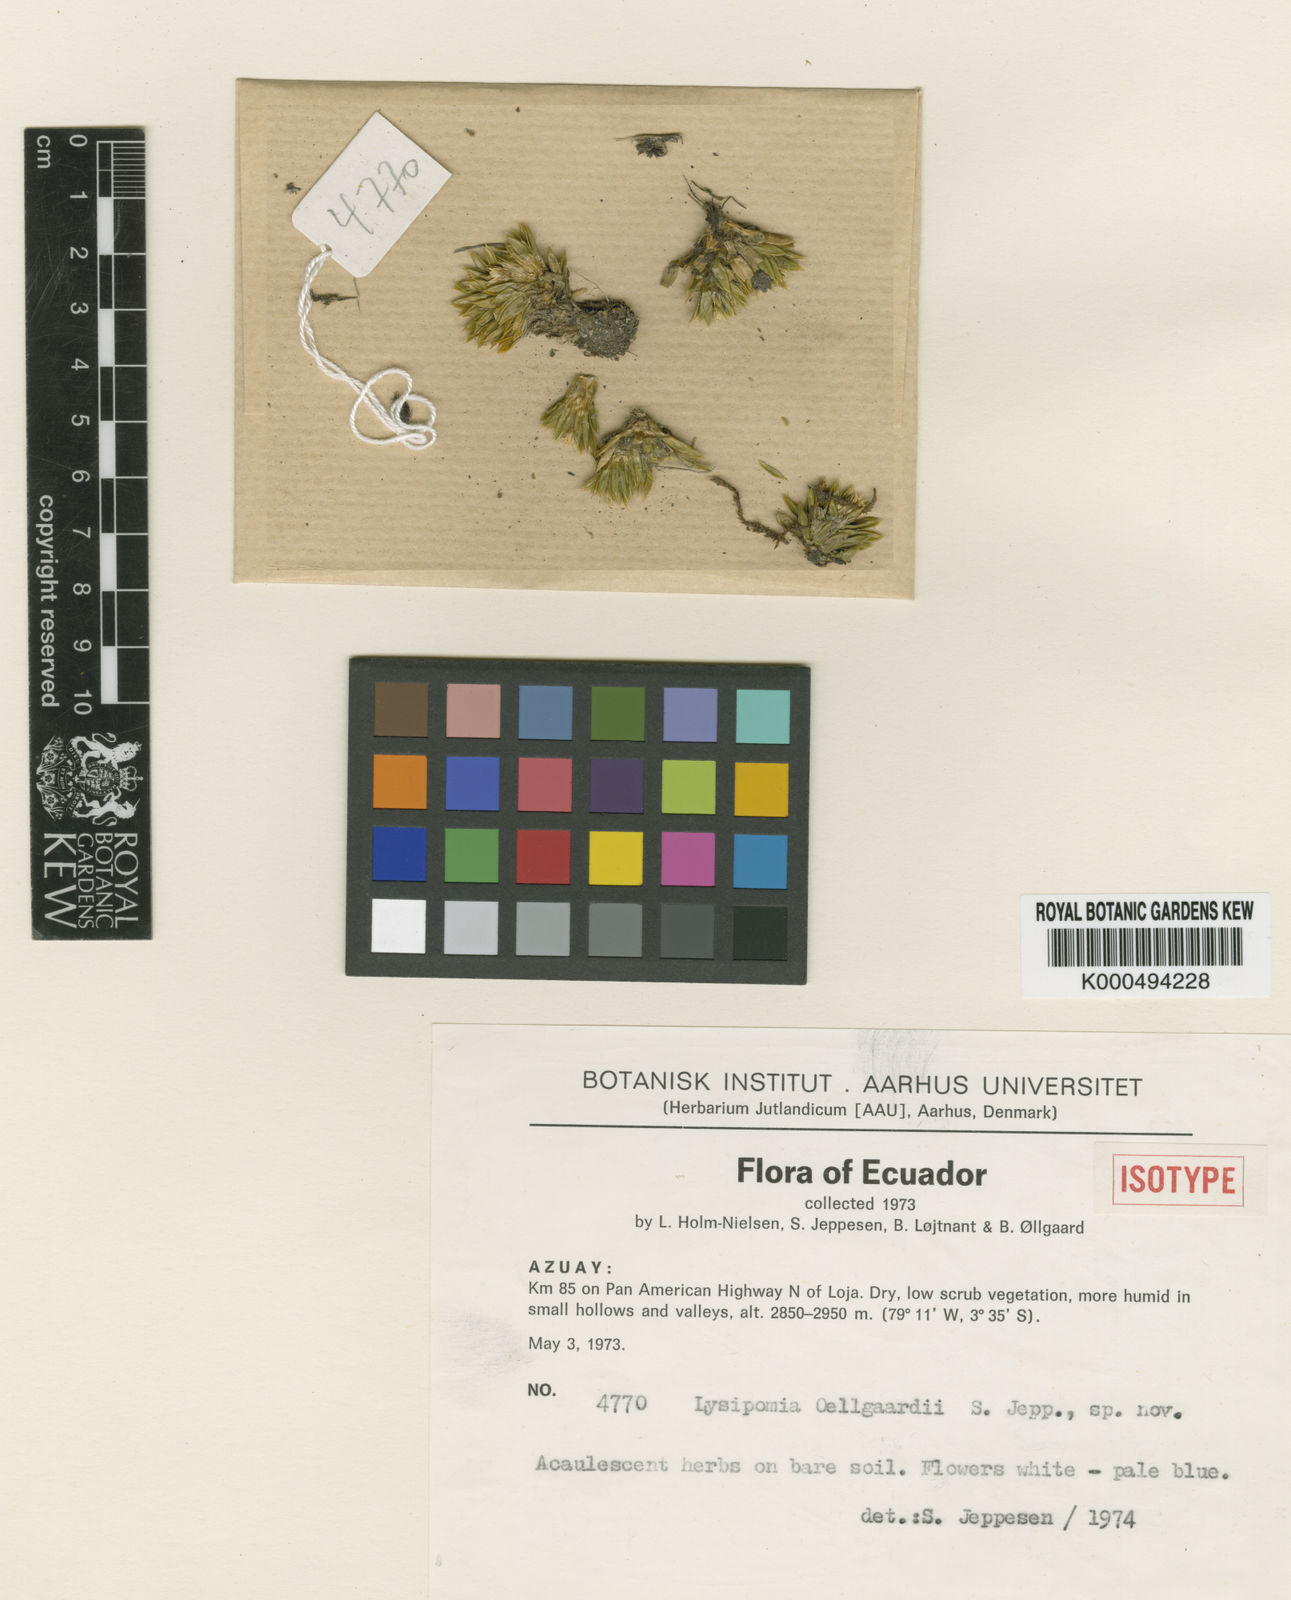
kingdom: Plantae
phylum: Tracheophyta
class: Magnoliopsida
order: Asterales
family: Campanulaceae
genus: Lysipomia
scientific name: Lysipomia oellgaardii
